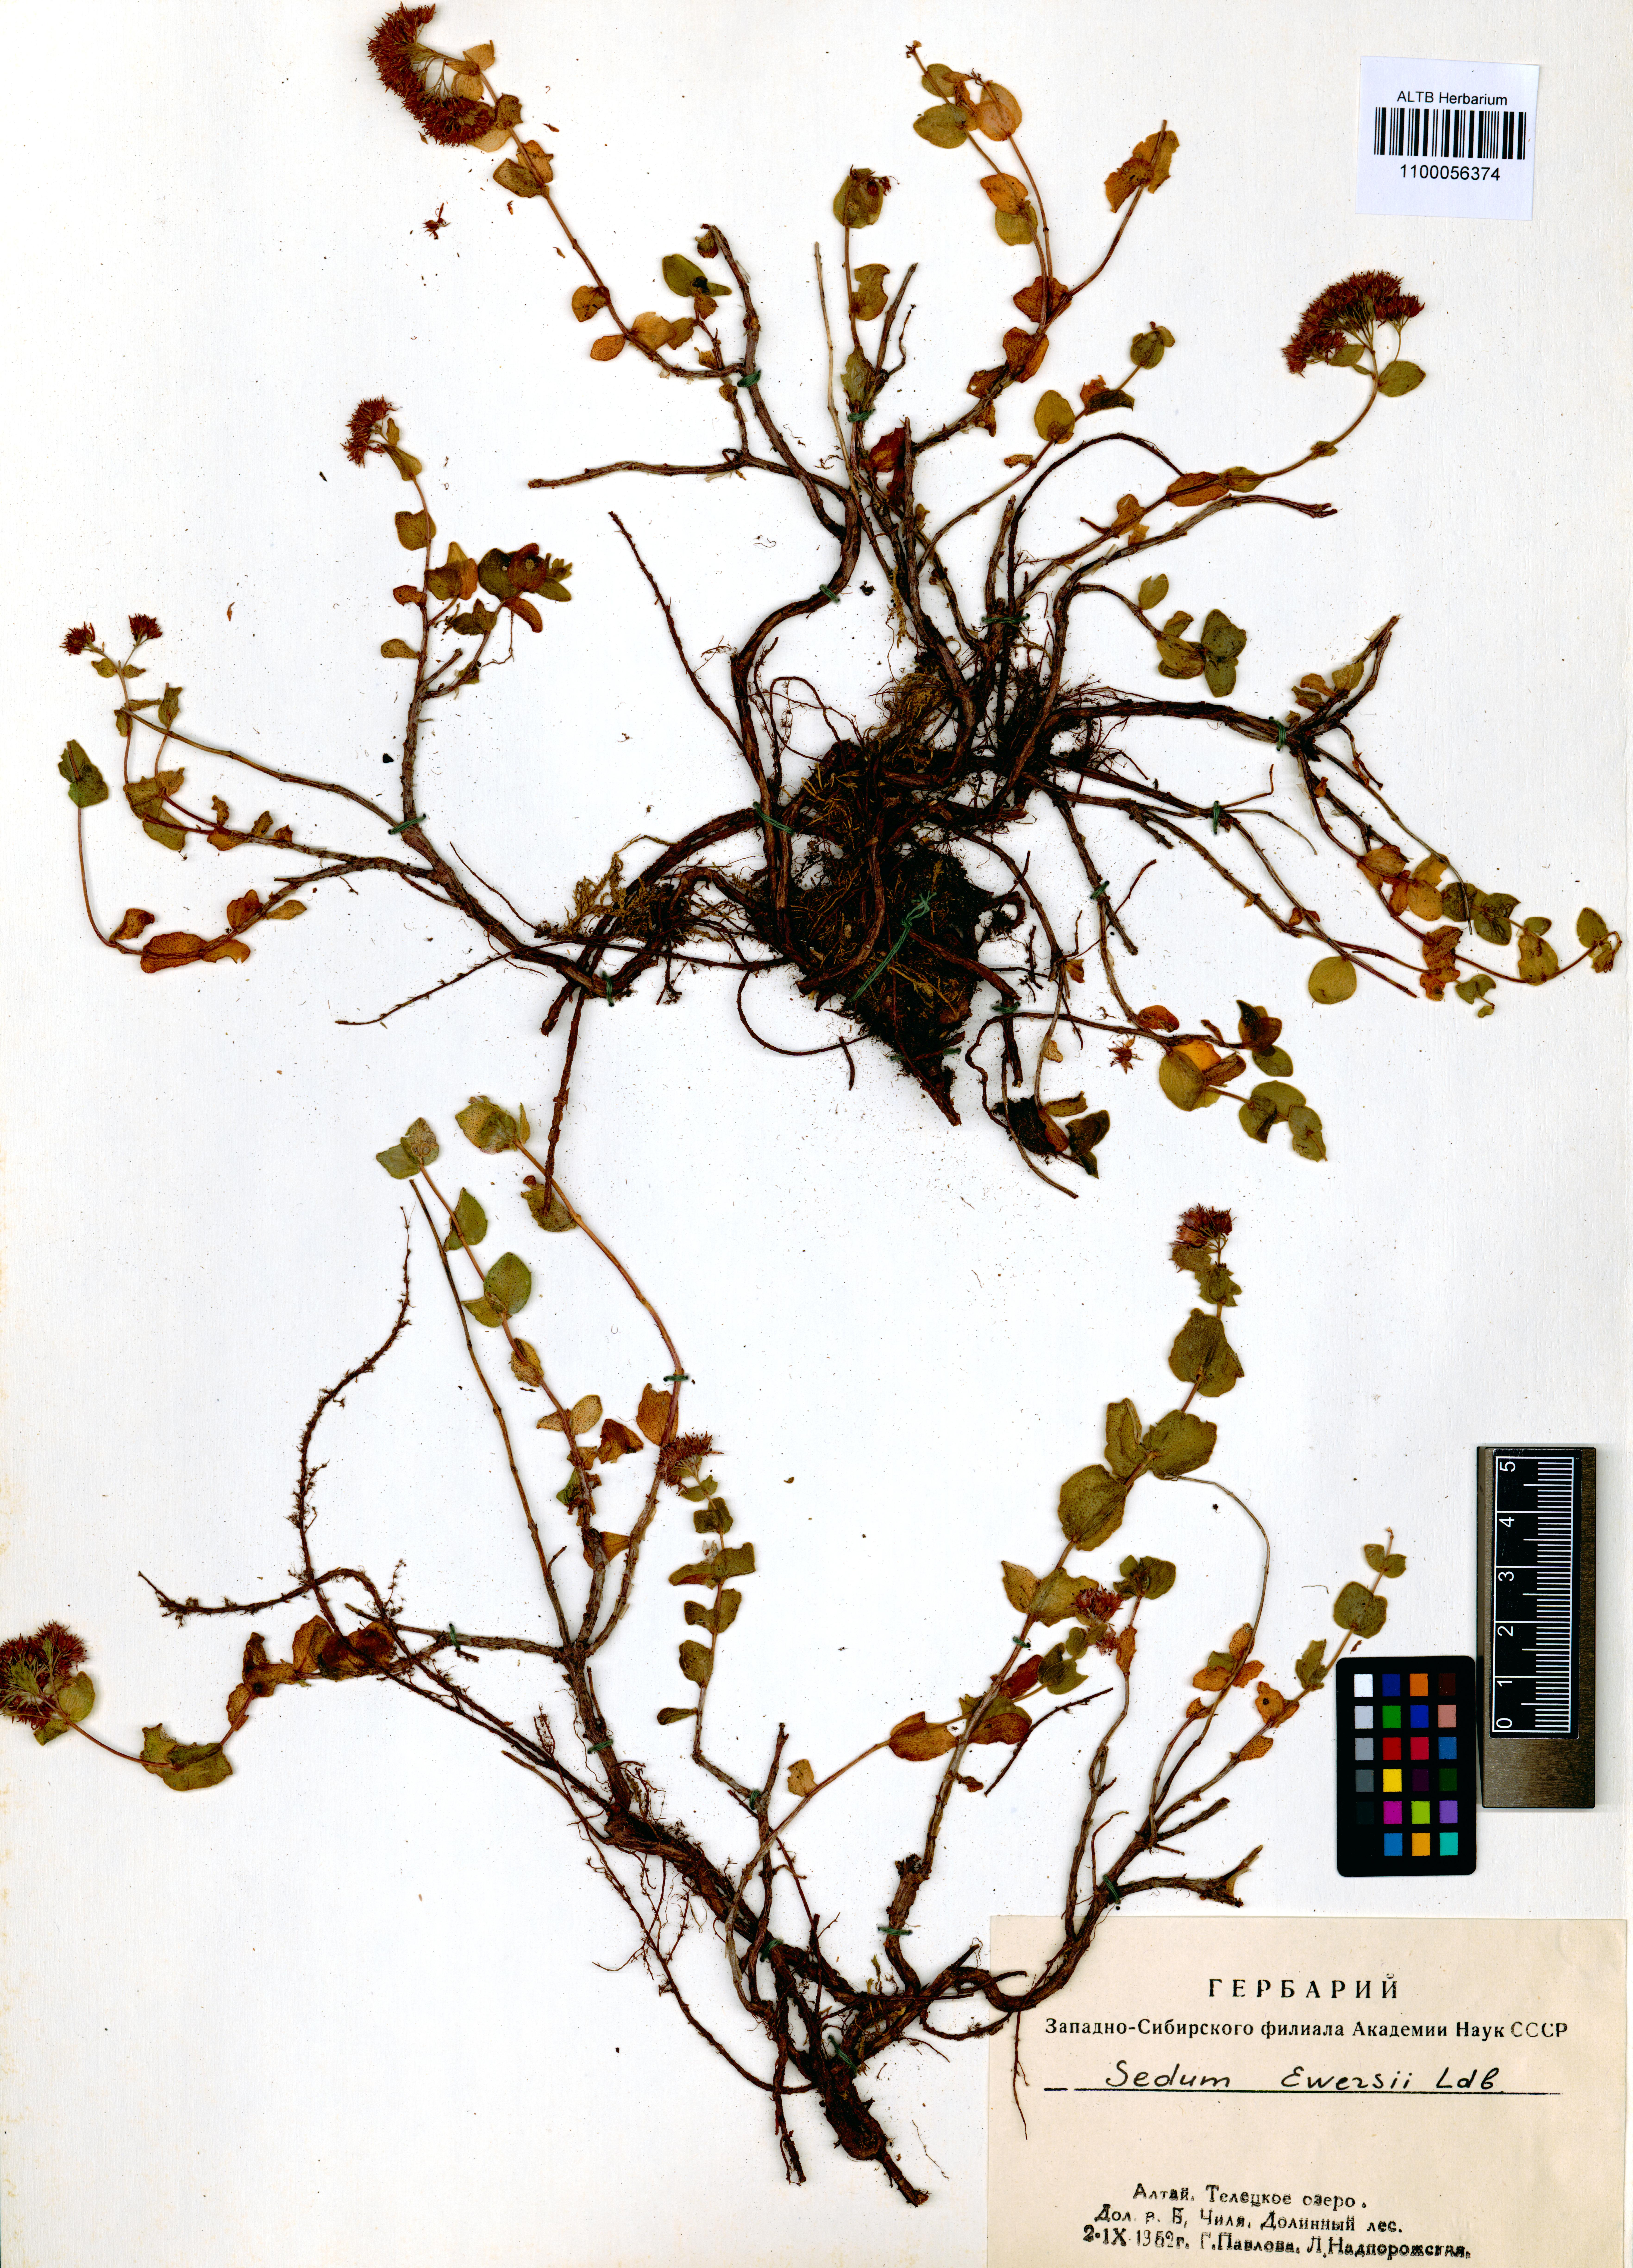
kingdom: Plantae
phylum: Tracheophyta
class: Magnoliopsida
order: Saxifragales
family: Crassulaceae
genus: Hylotelephium
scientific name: Hylotelephium ewersii
